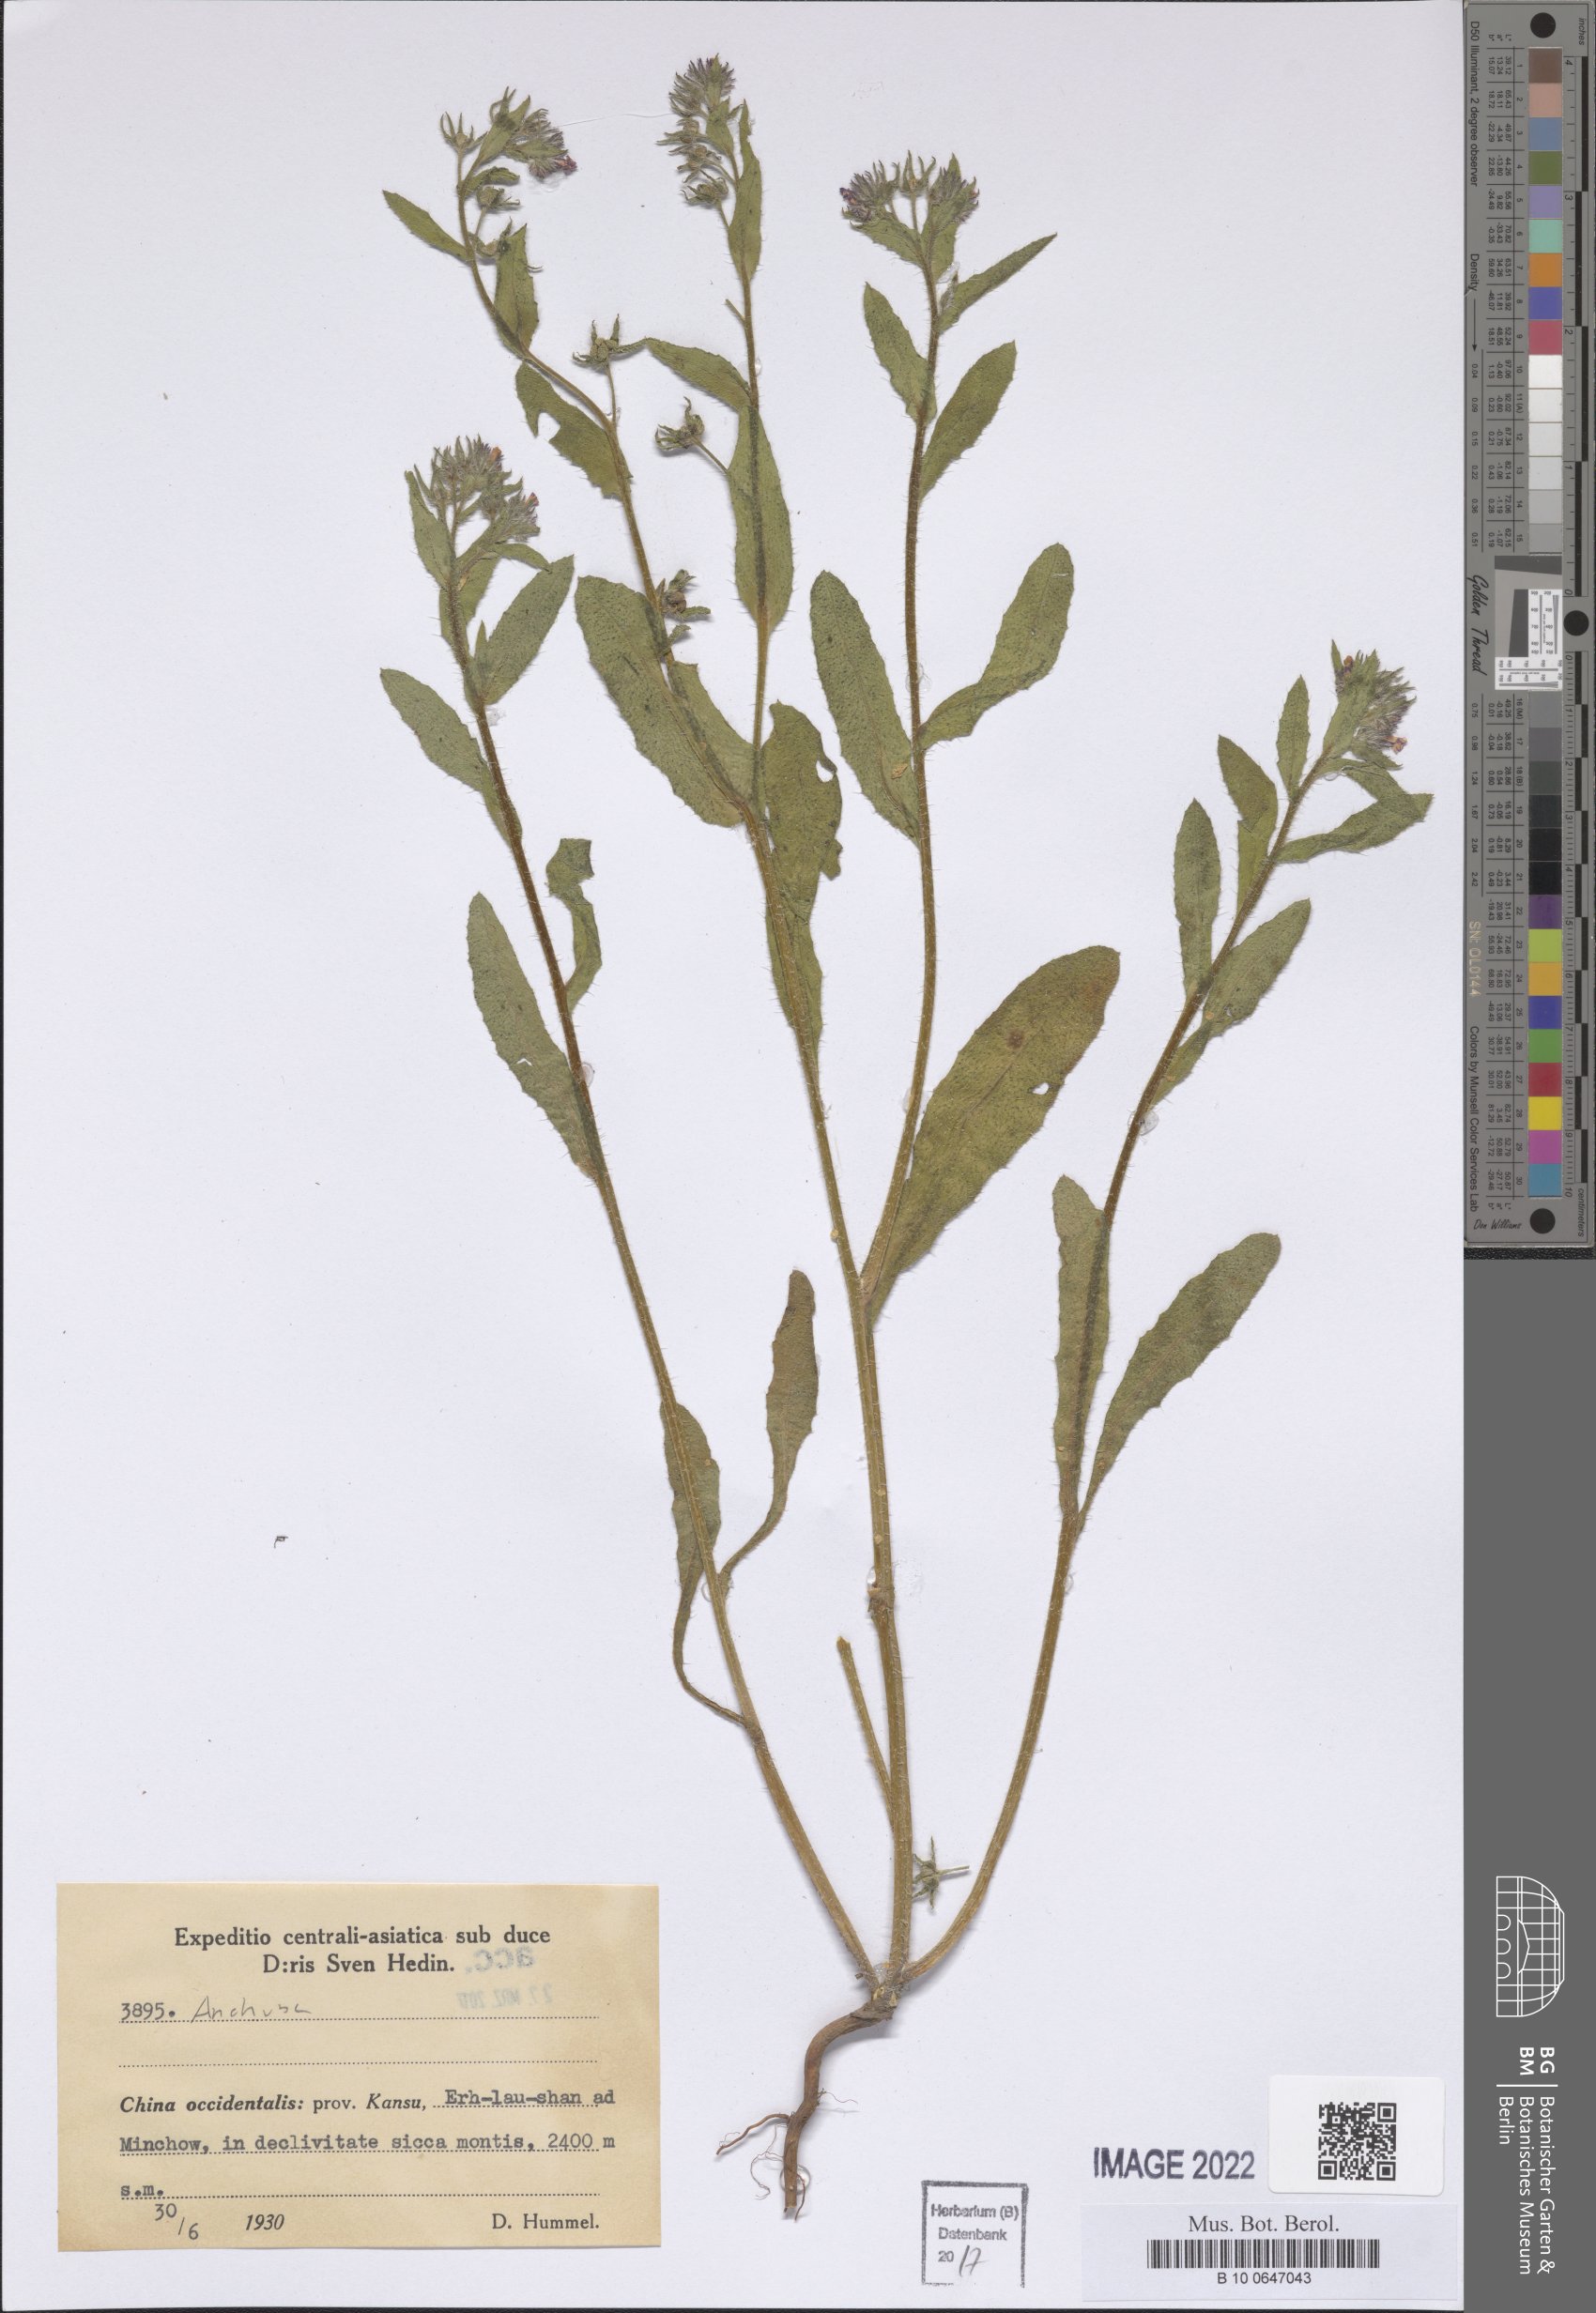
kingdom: Plantae
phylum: Tracheophyta
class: Magnoliopsida
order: Boraginales
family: Boraginaceae
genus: Anchusa
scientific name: Anchusa
